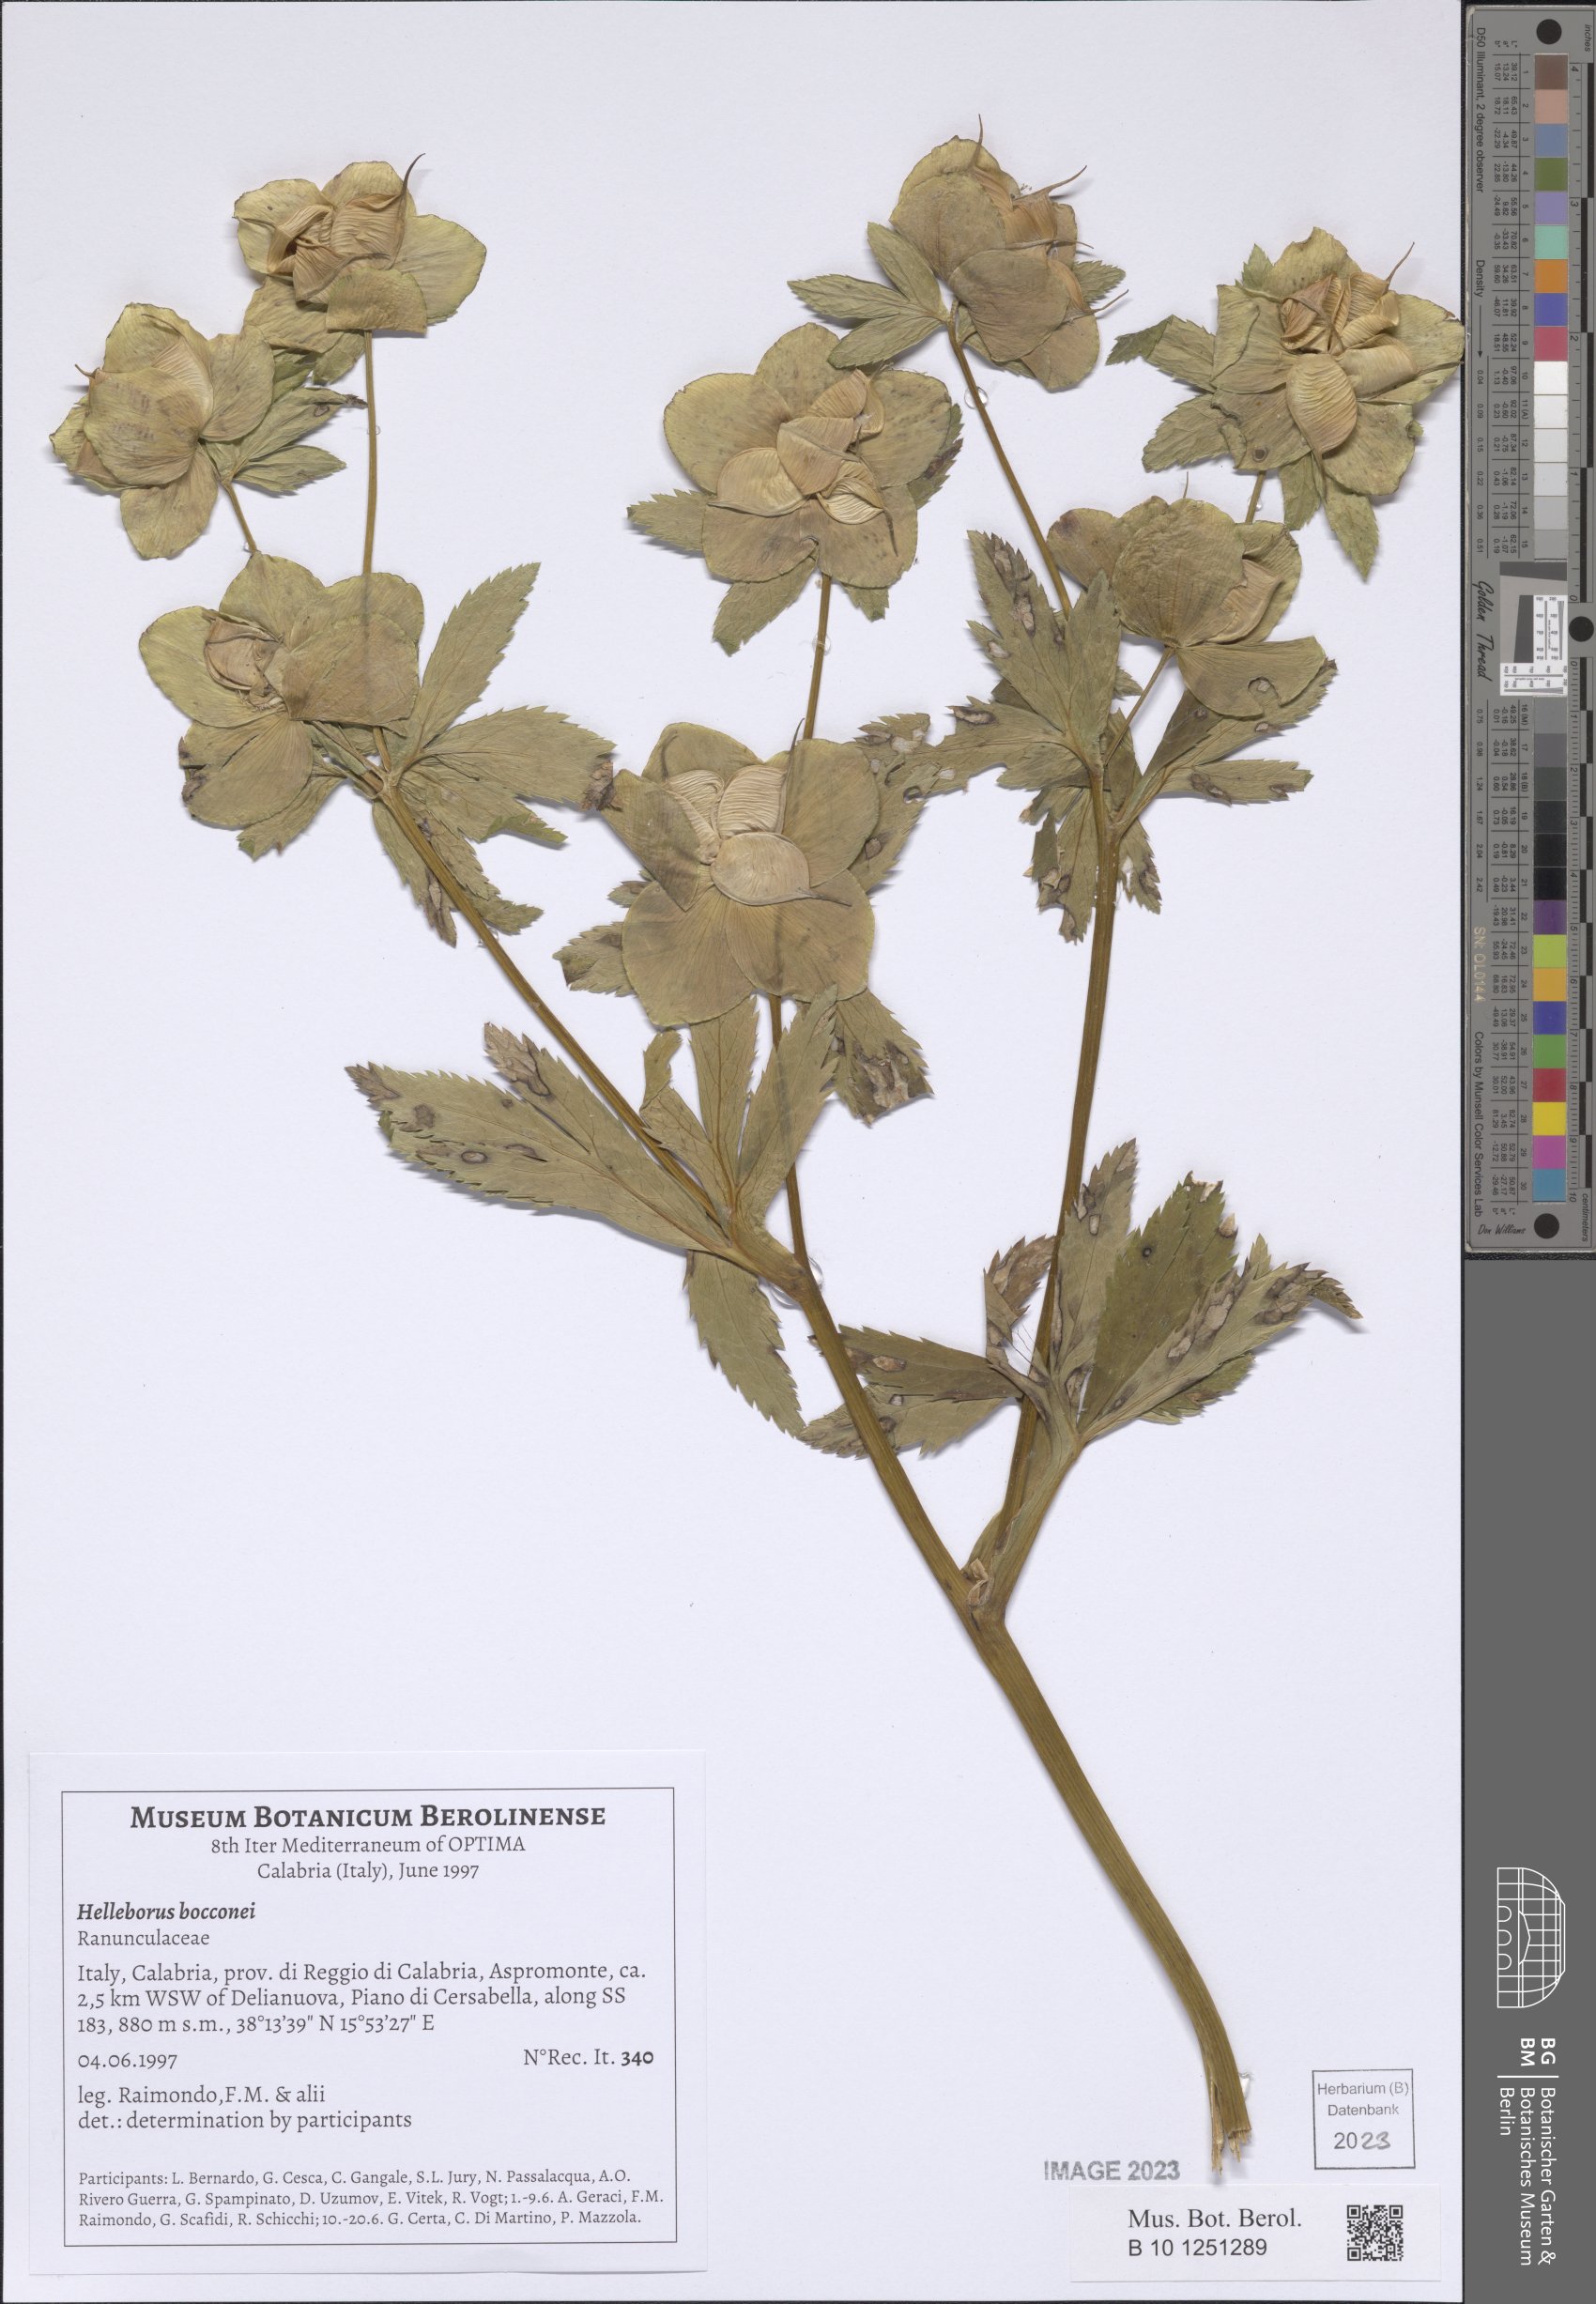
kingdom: Plantae
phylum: Tracheophyta
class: Magnoliopsida
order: Ranunculales
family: Ranunculaceae
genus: Helleborus
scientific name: Helleborus bocconei
